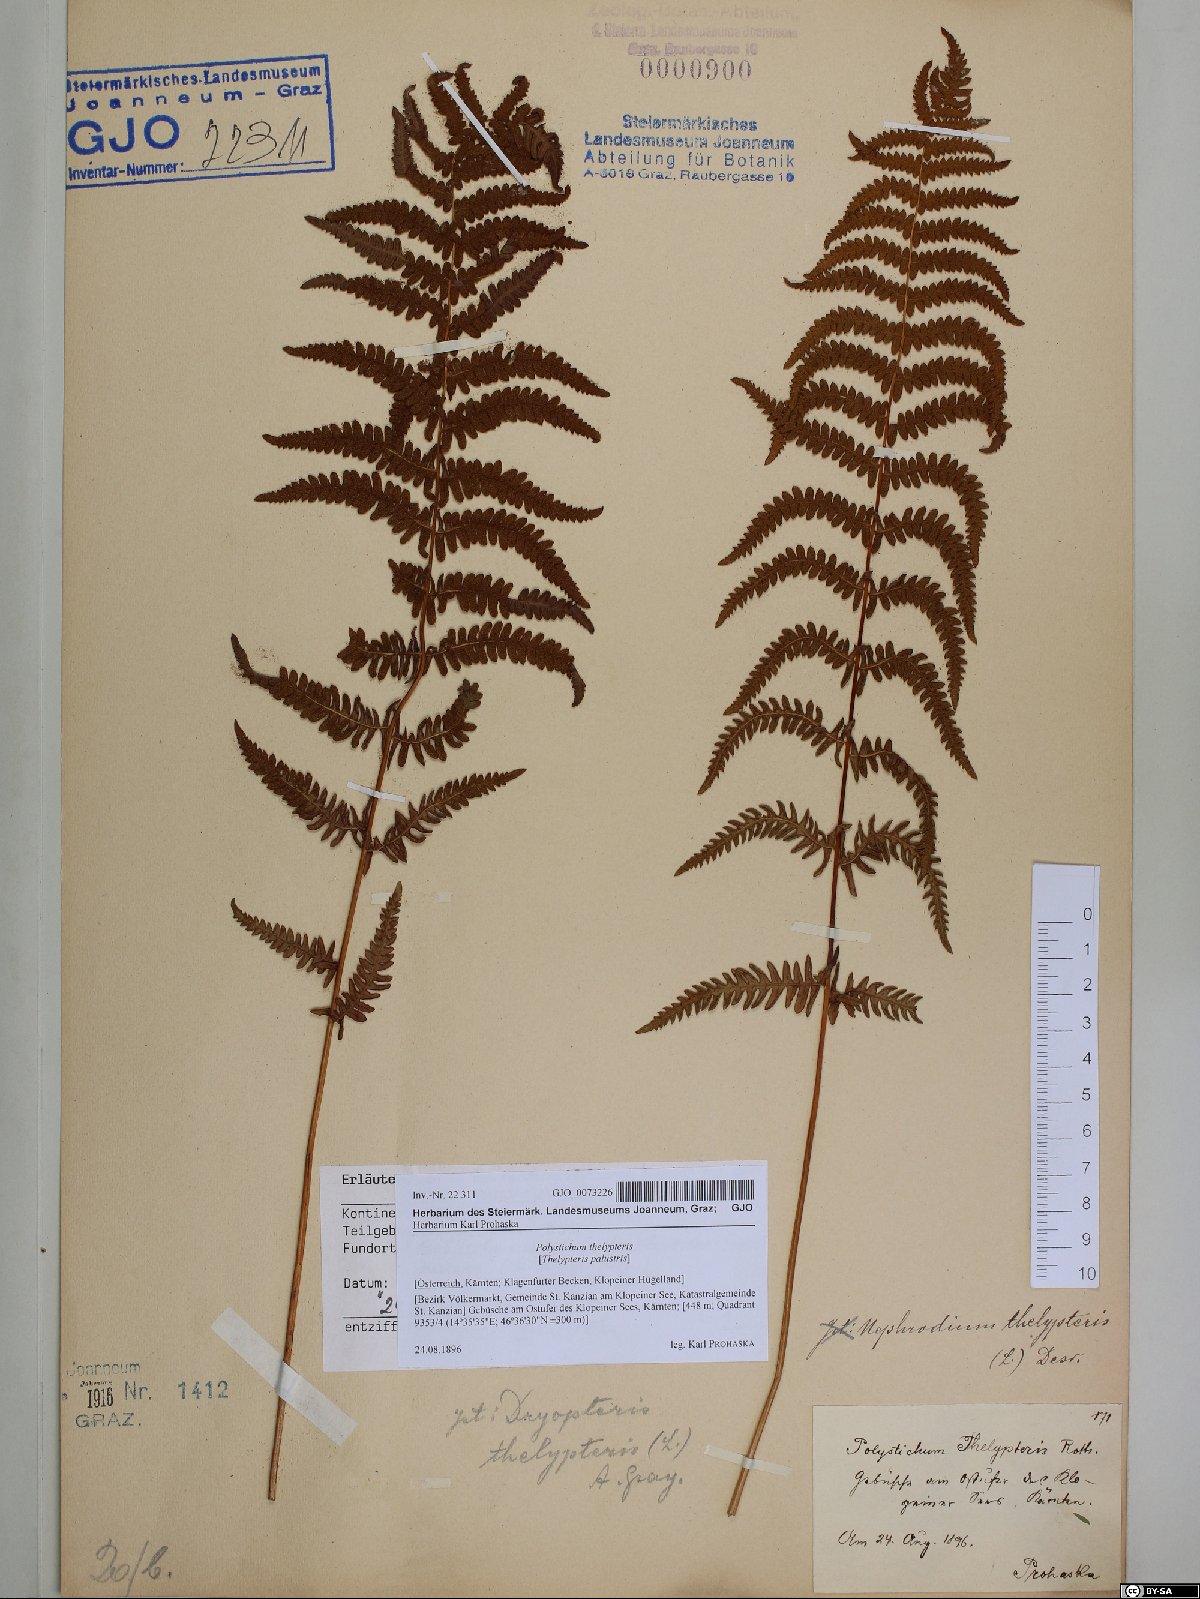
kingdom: Plantae
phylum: Tracheophyta
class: Polypodiopsida
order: Polypodiales
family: Thelypteridaceae
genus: Thelypteris
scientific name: Thelypteris palustris
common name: Marsh fern
